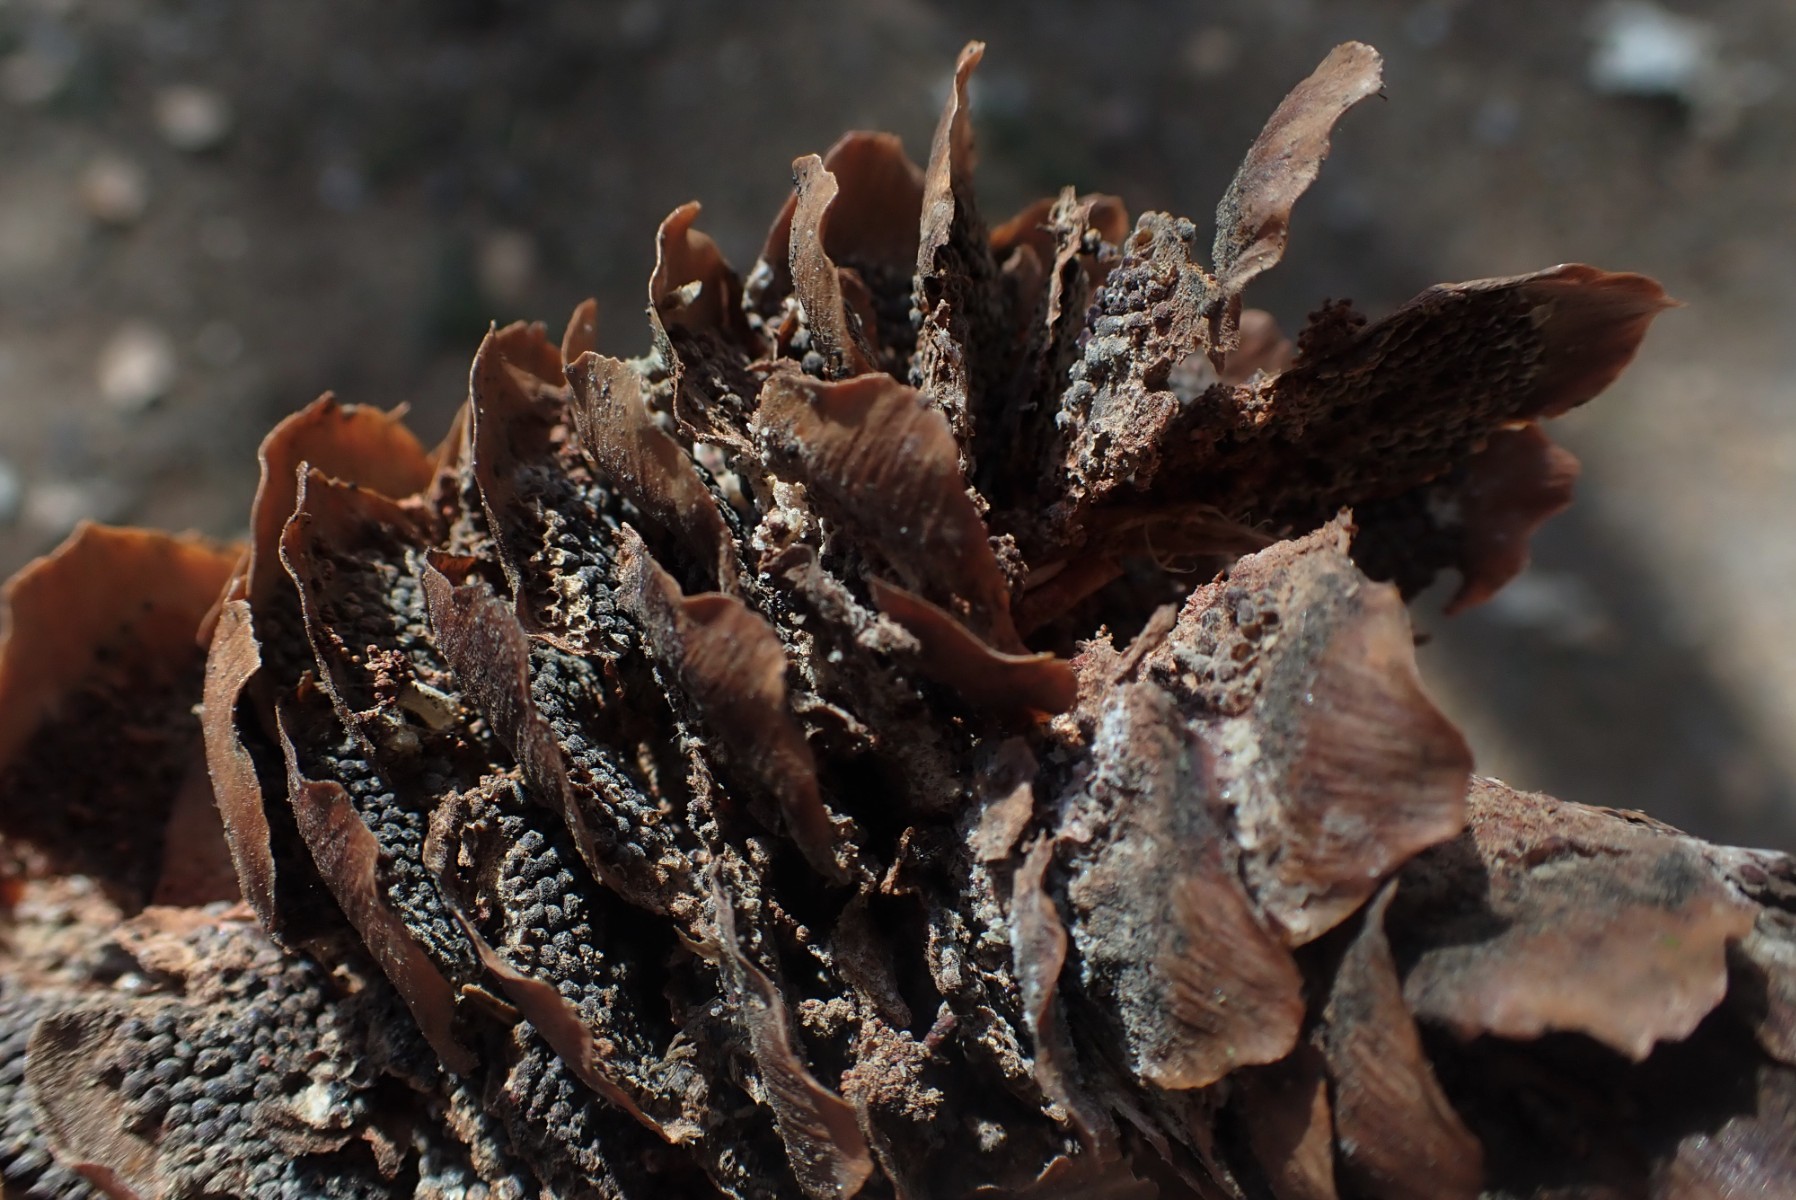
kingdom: Fungi
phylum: Basidiomycota
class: Pucciniomycetes
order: Pucciniales
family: Pucciniastraceae
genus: Thekopsora
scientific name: Thekopsora areolata
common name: grankogle-nålerust
